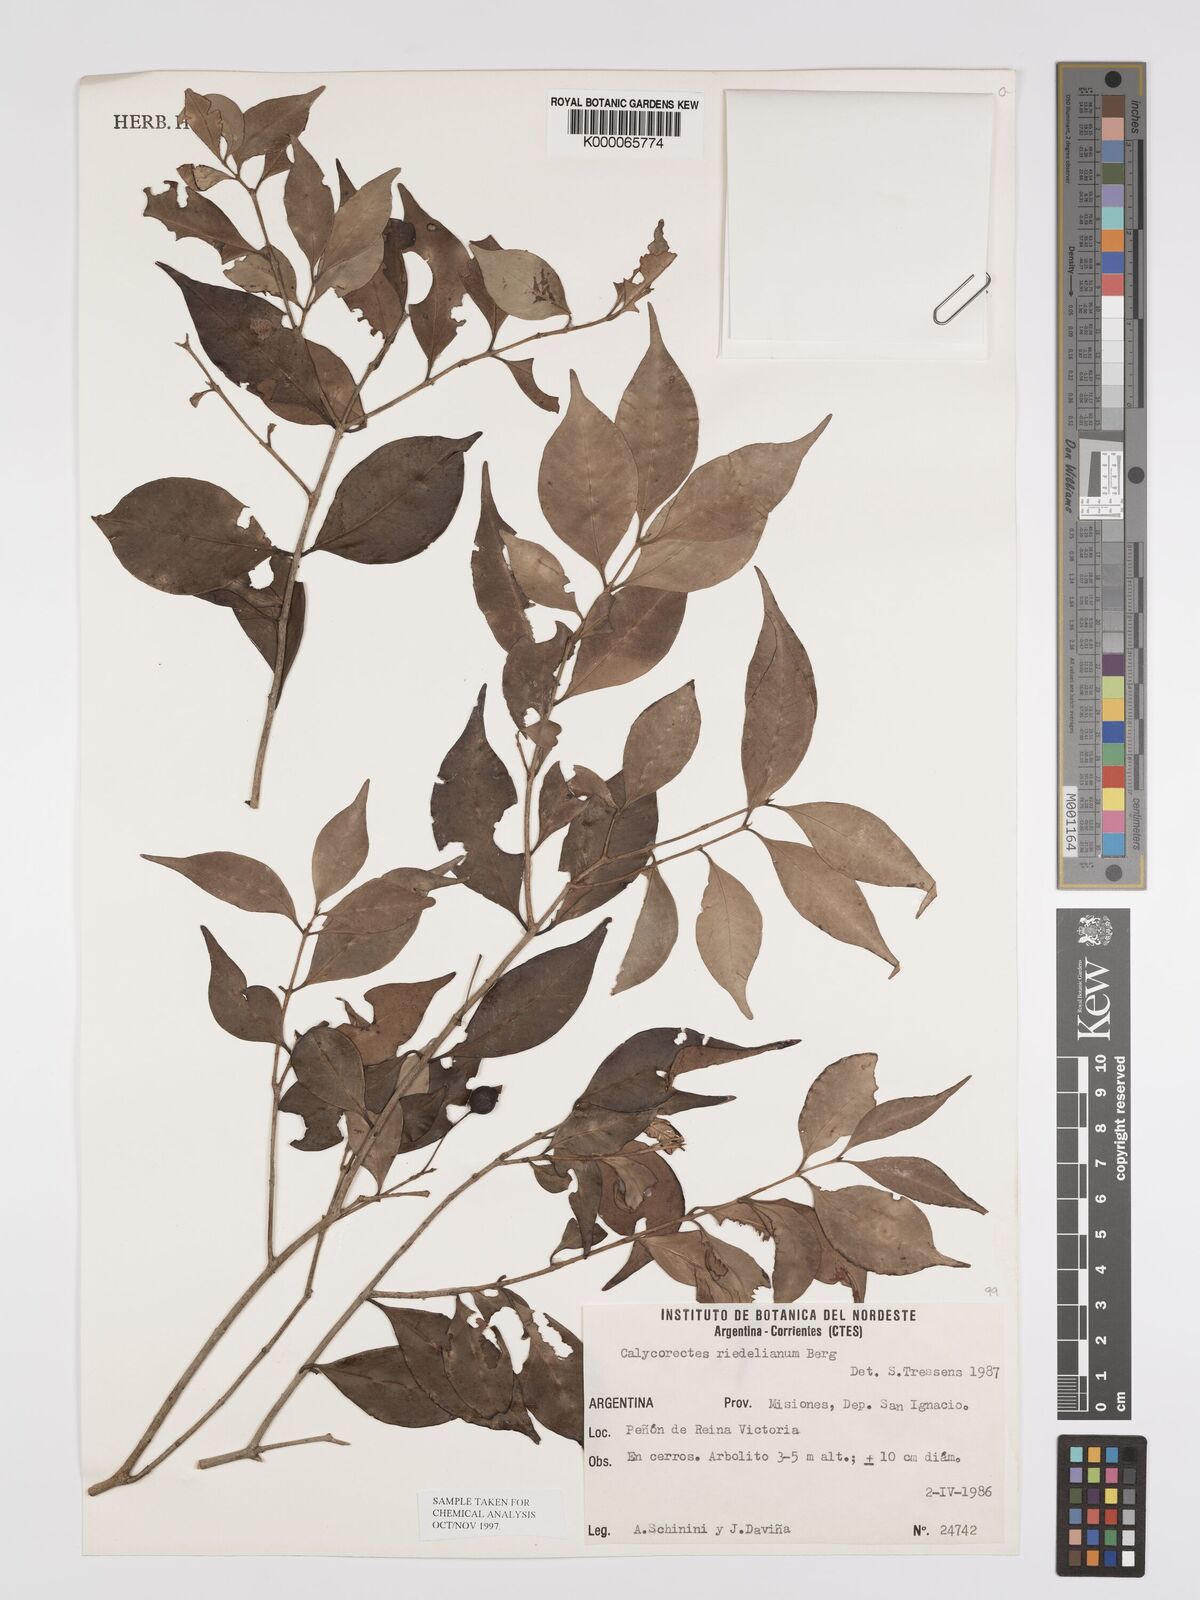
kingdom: Plantae
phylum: Tracheophyta
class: Magnoliopsida
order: Myrtales
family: Myrtaceae
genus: Eugenia
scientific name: Eugenia psidiiflora
